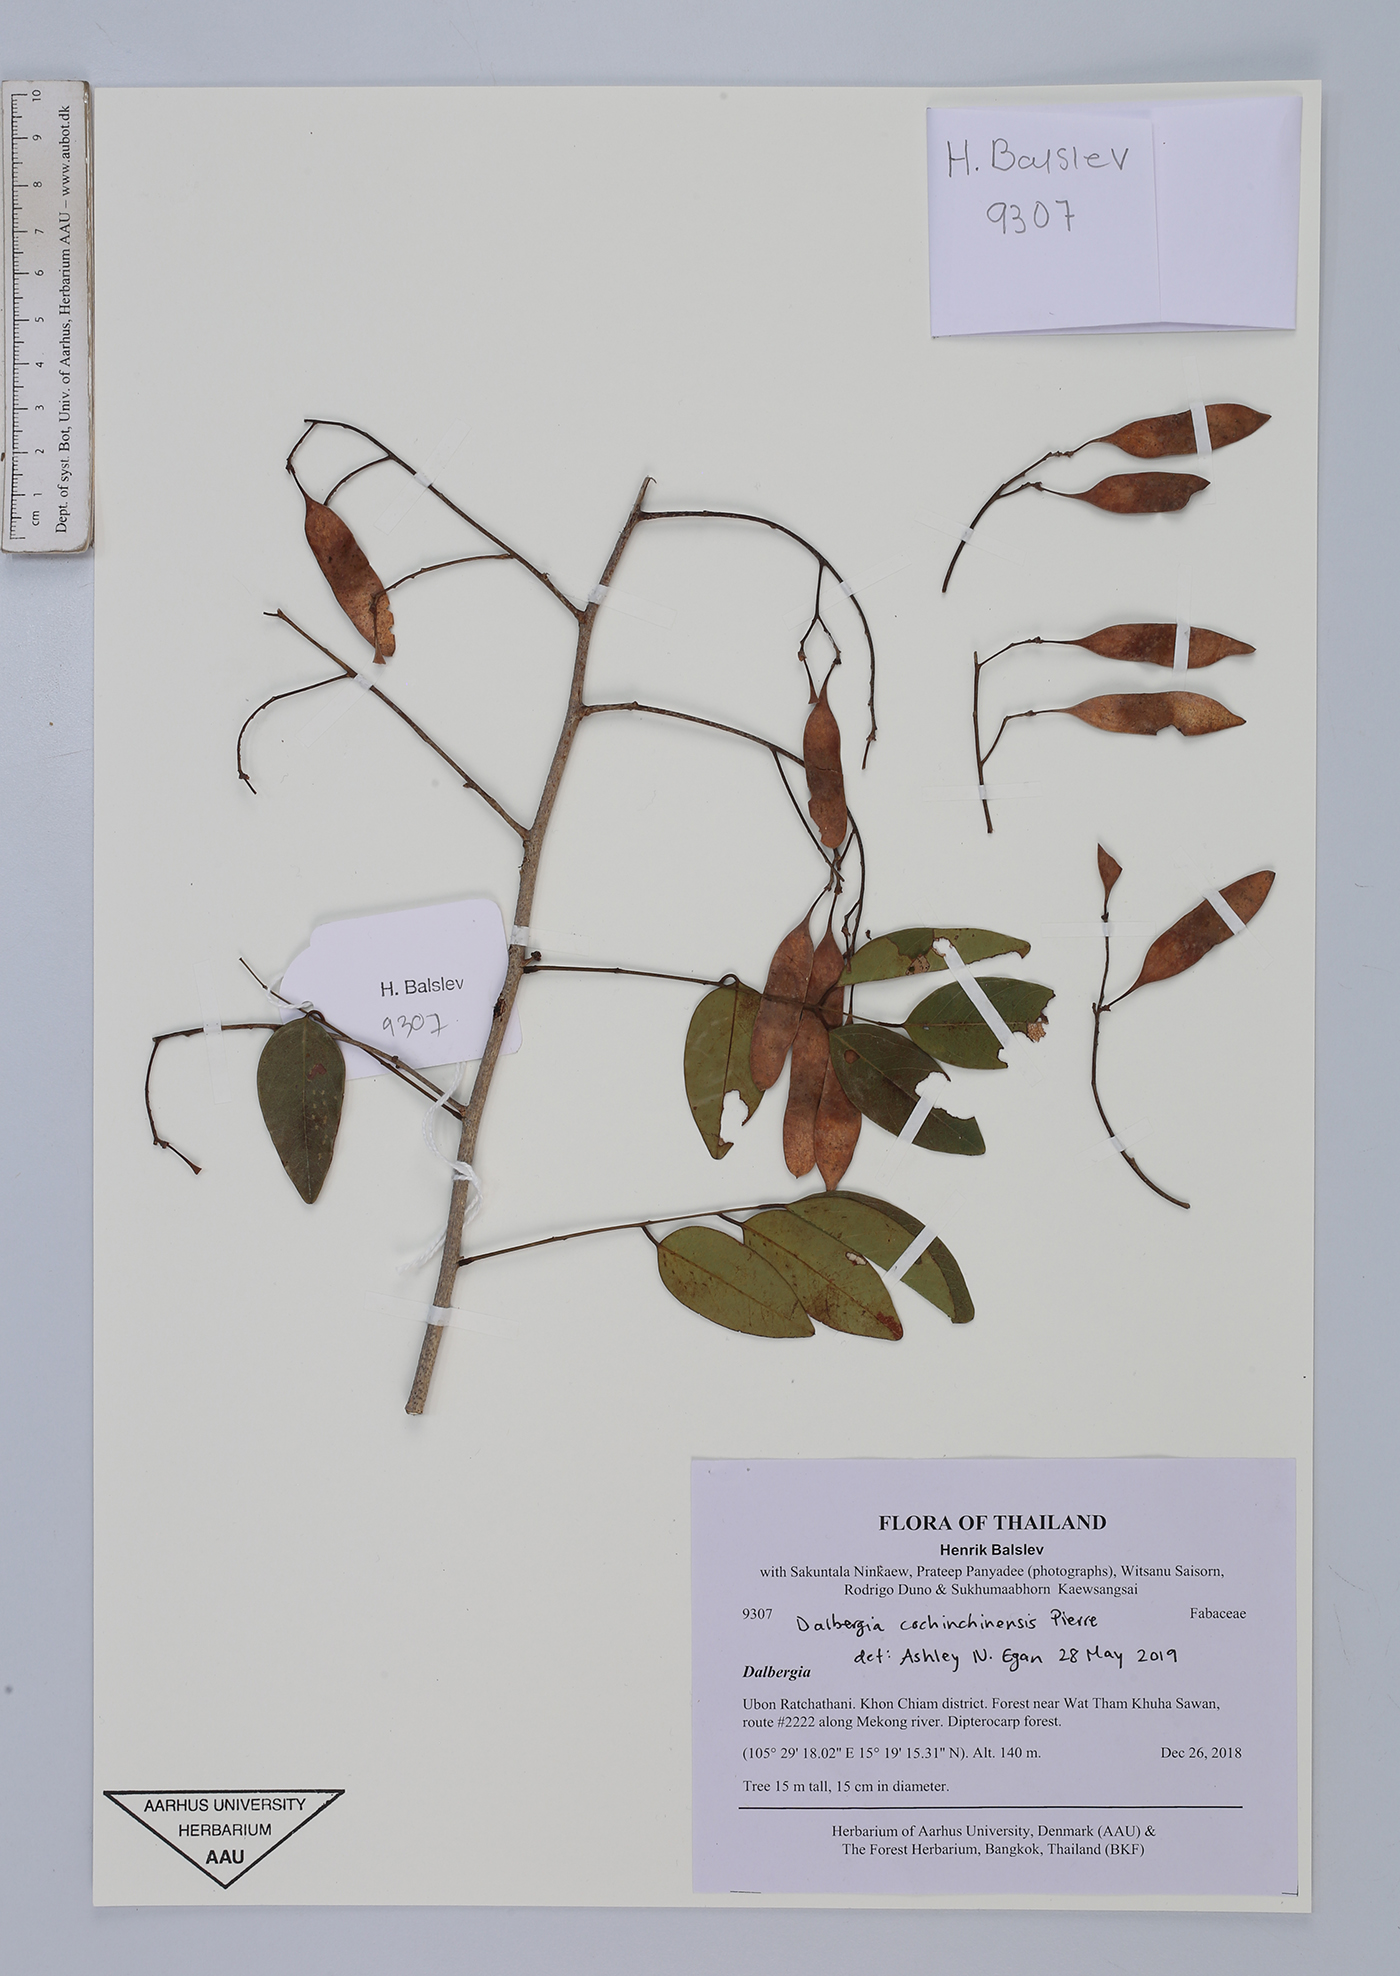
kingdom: Plantae
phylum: Tracheophyta
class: Magnoliopsida
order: Fabales
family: Fabaceae
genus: Dalbergia
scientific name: Dalbergia cochinchinensis
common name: Siamese rosewood
